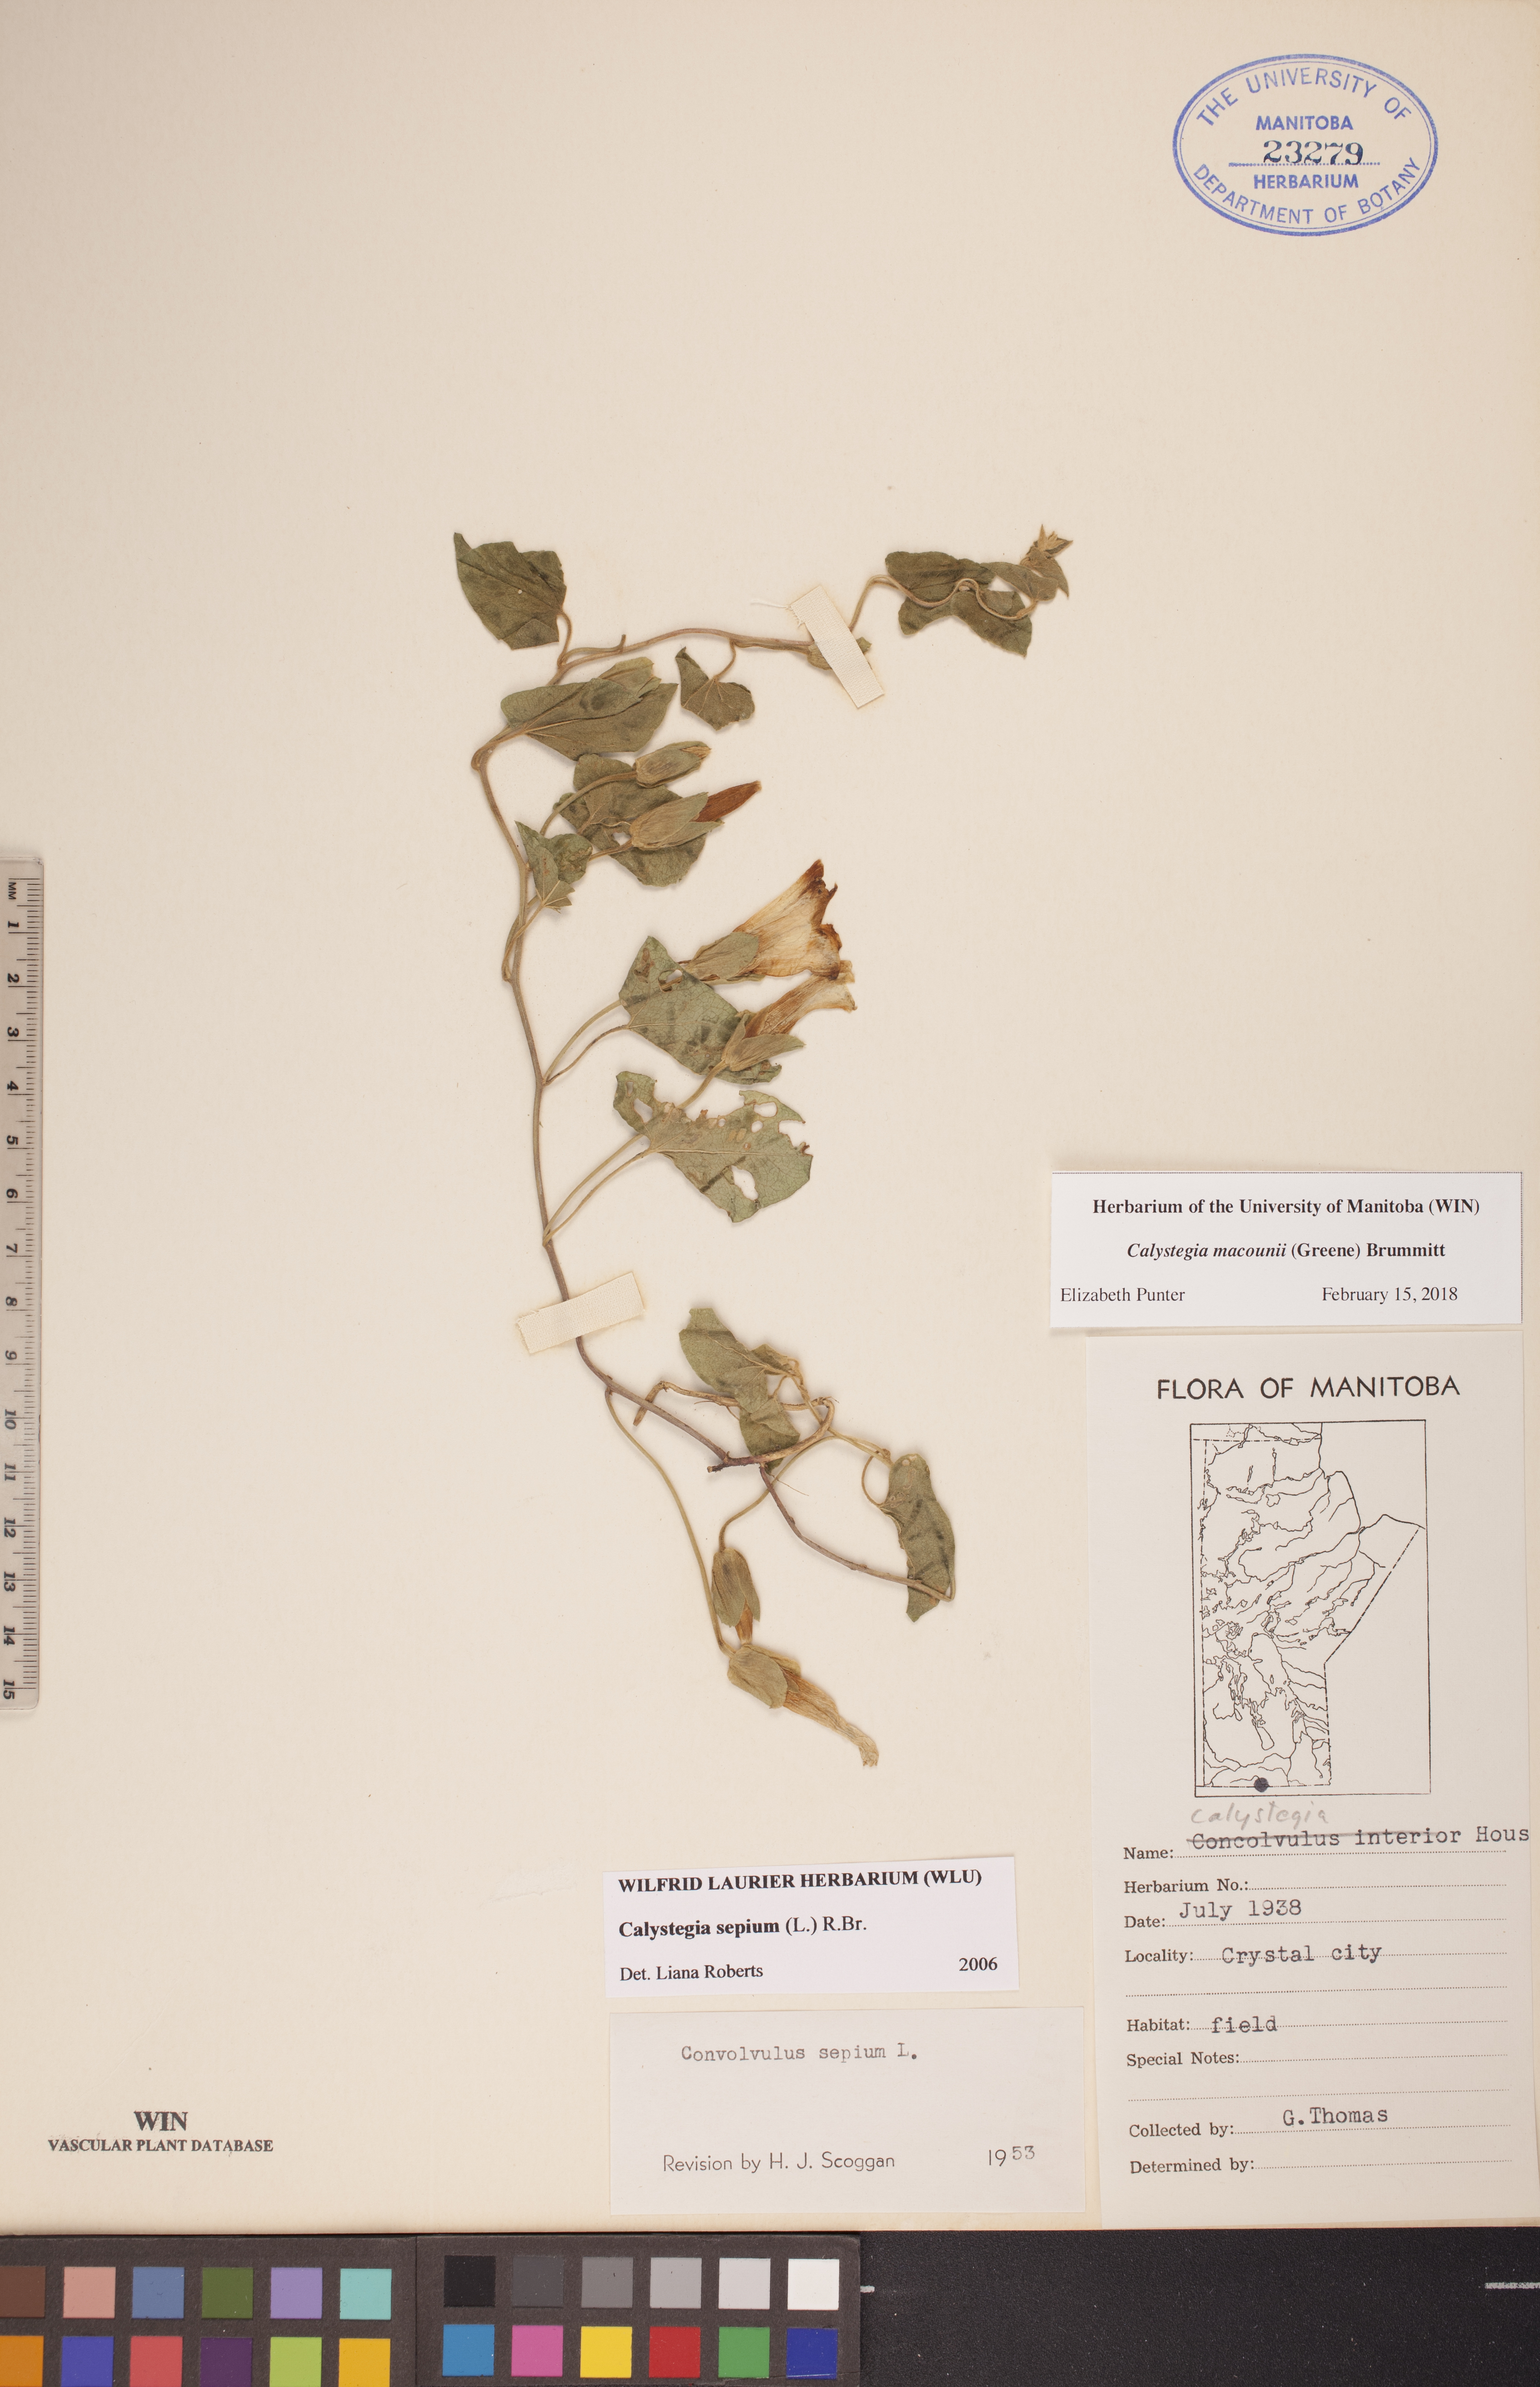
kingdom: Plantae
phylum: Tracheophyta
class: Magnoliopsida
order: Solanales
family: Convolvulaceae
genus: Calystegia
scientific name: Calystegia macounii
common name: Macoun's bindweed
